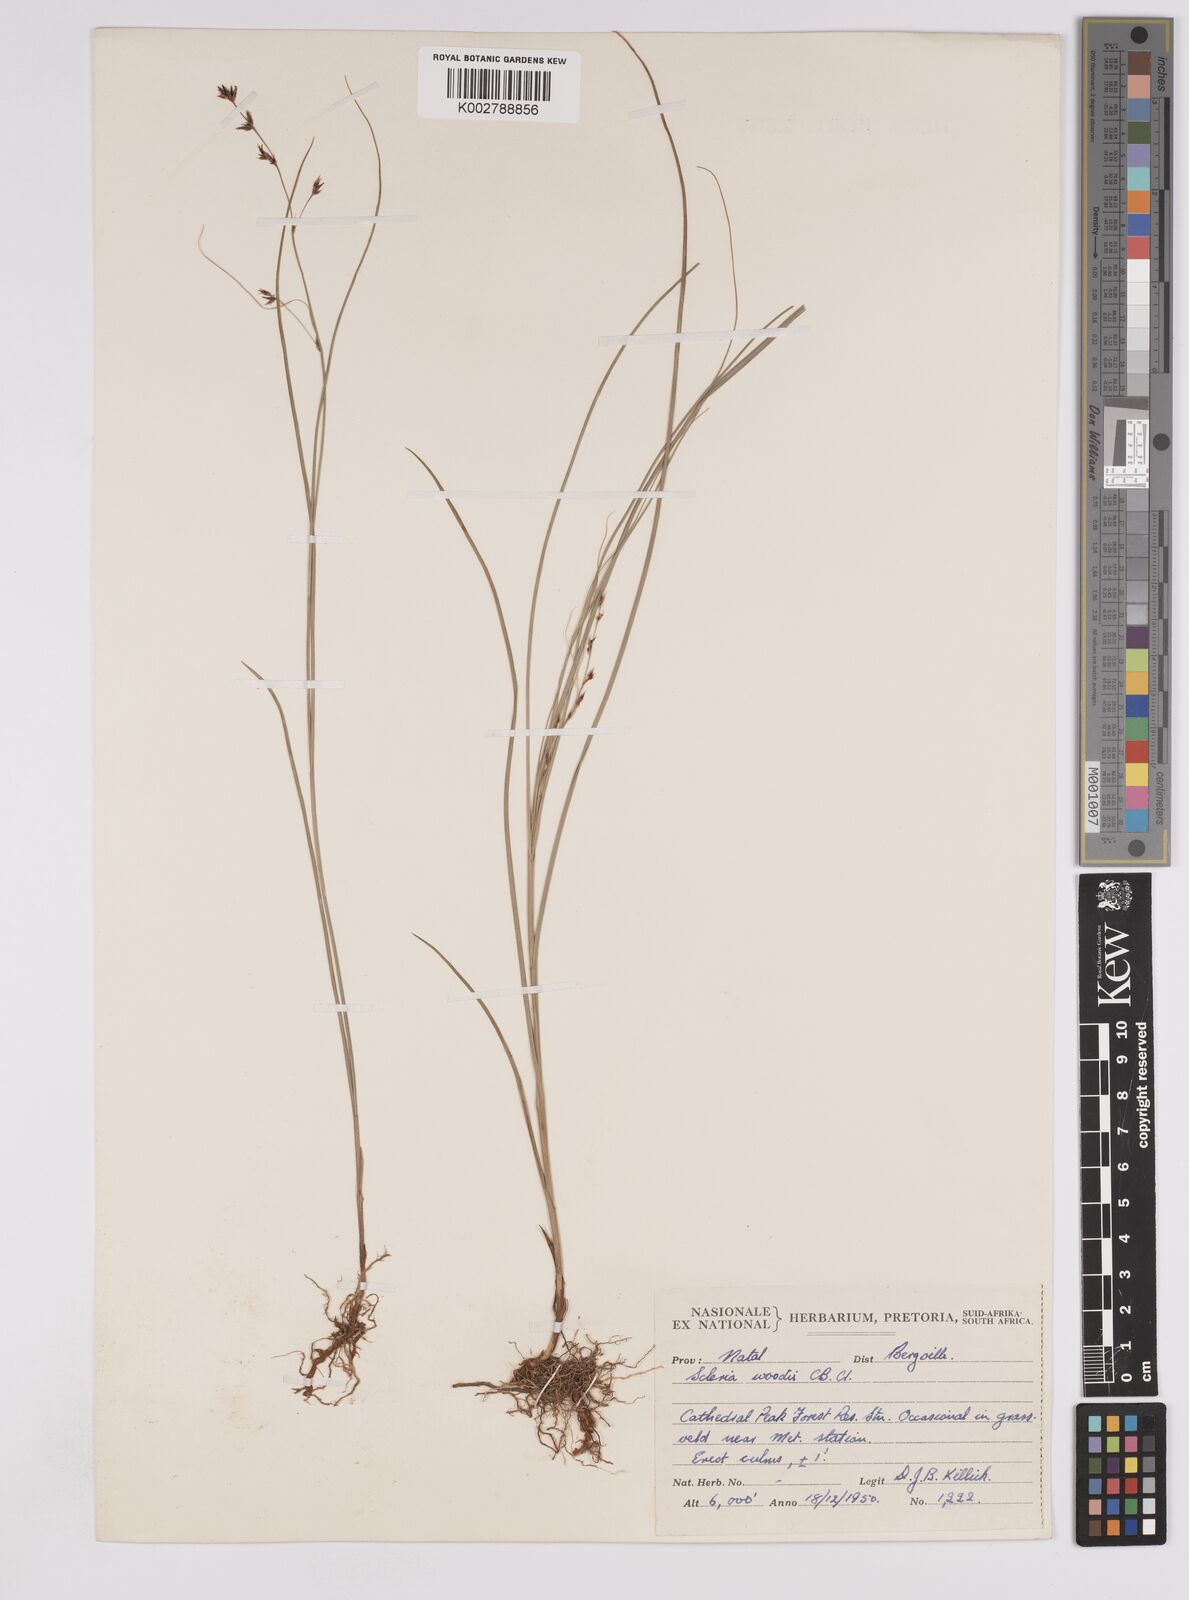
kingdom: Plantae
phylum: Tracheophyta
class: Liliopsida
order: Poales
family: Cyperaceae
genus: Scleria
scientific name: Scleria woodii
